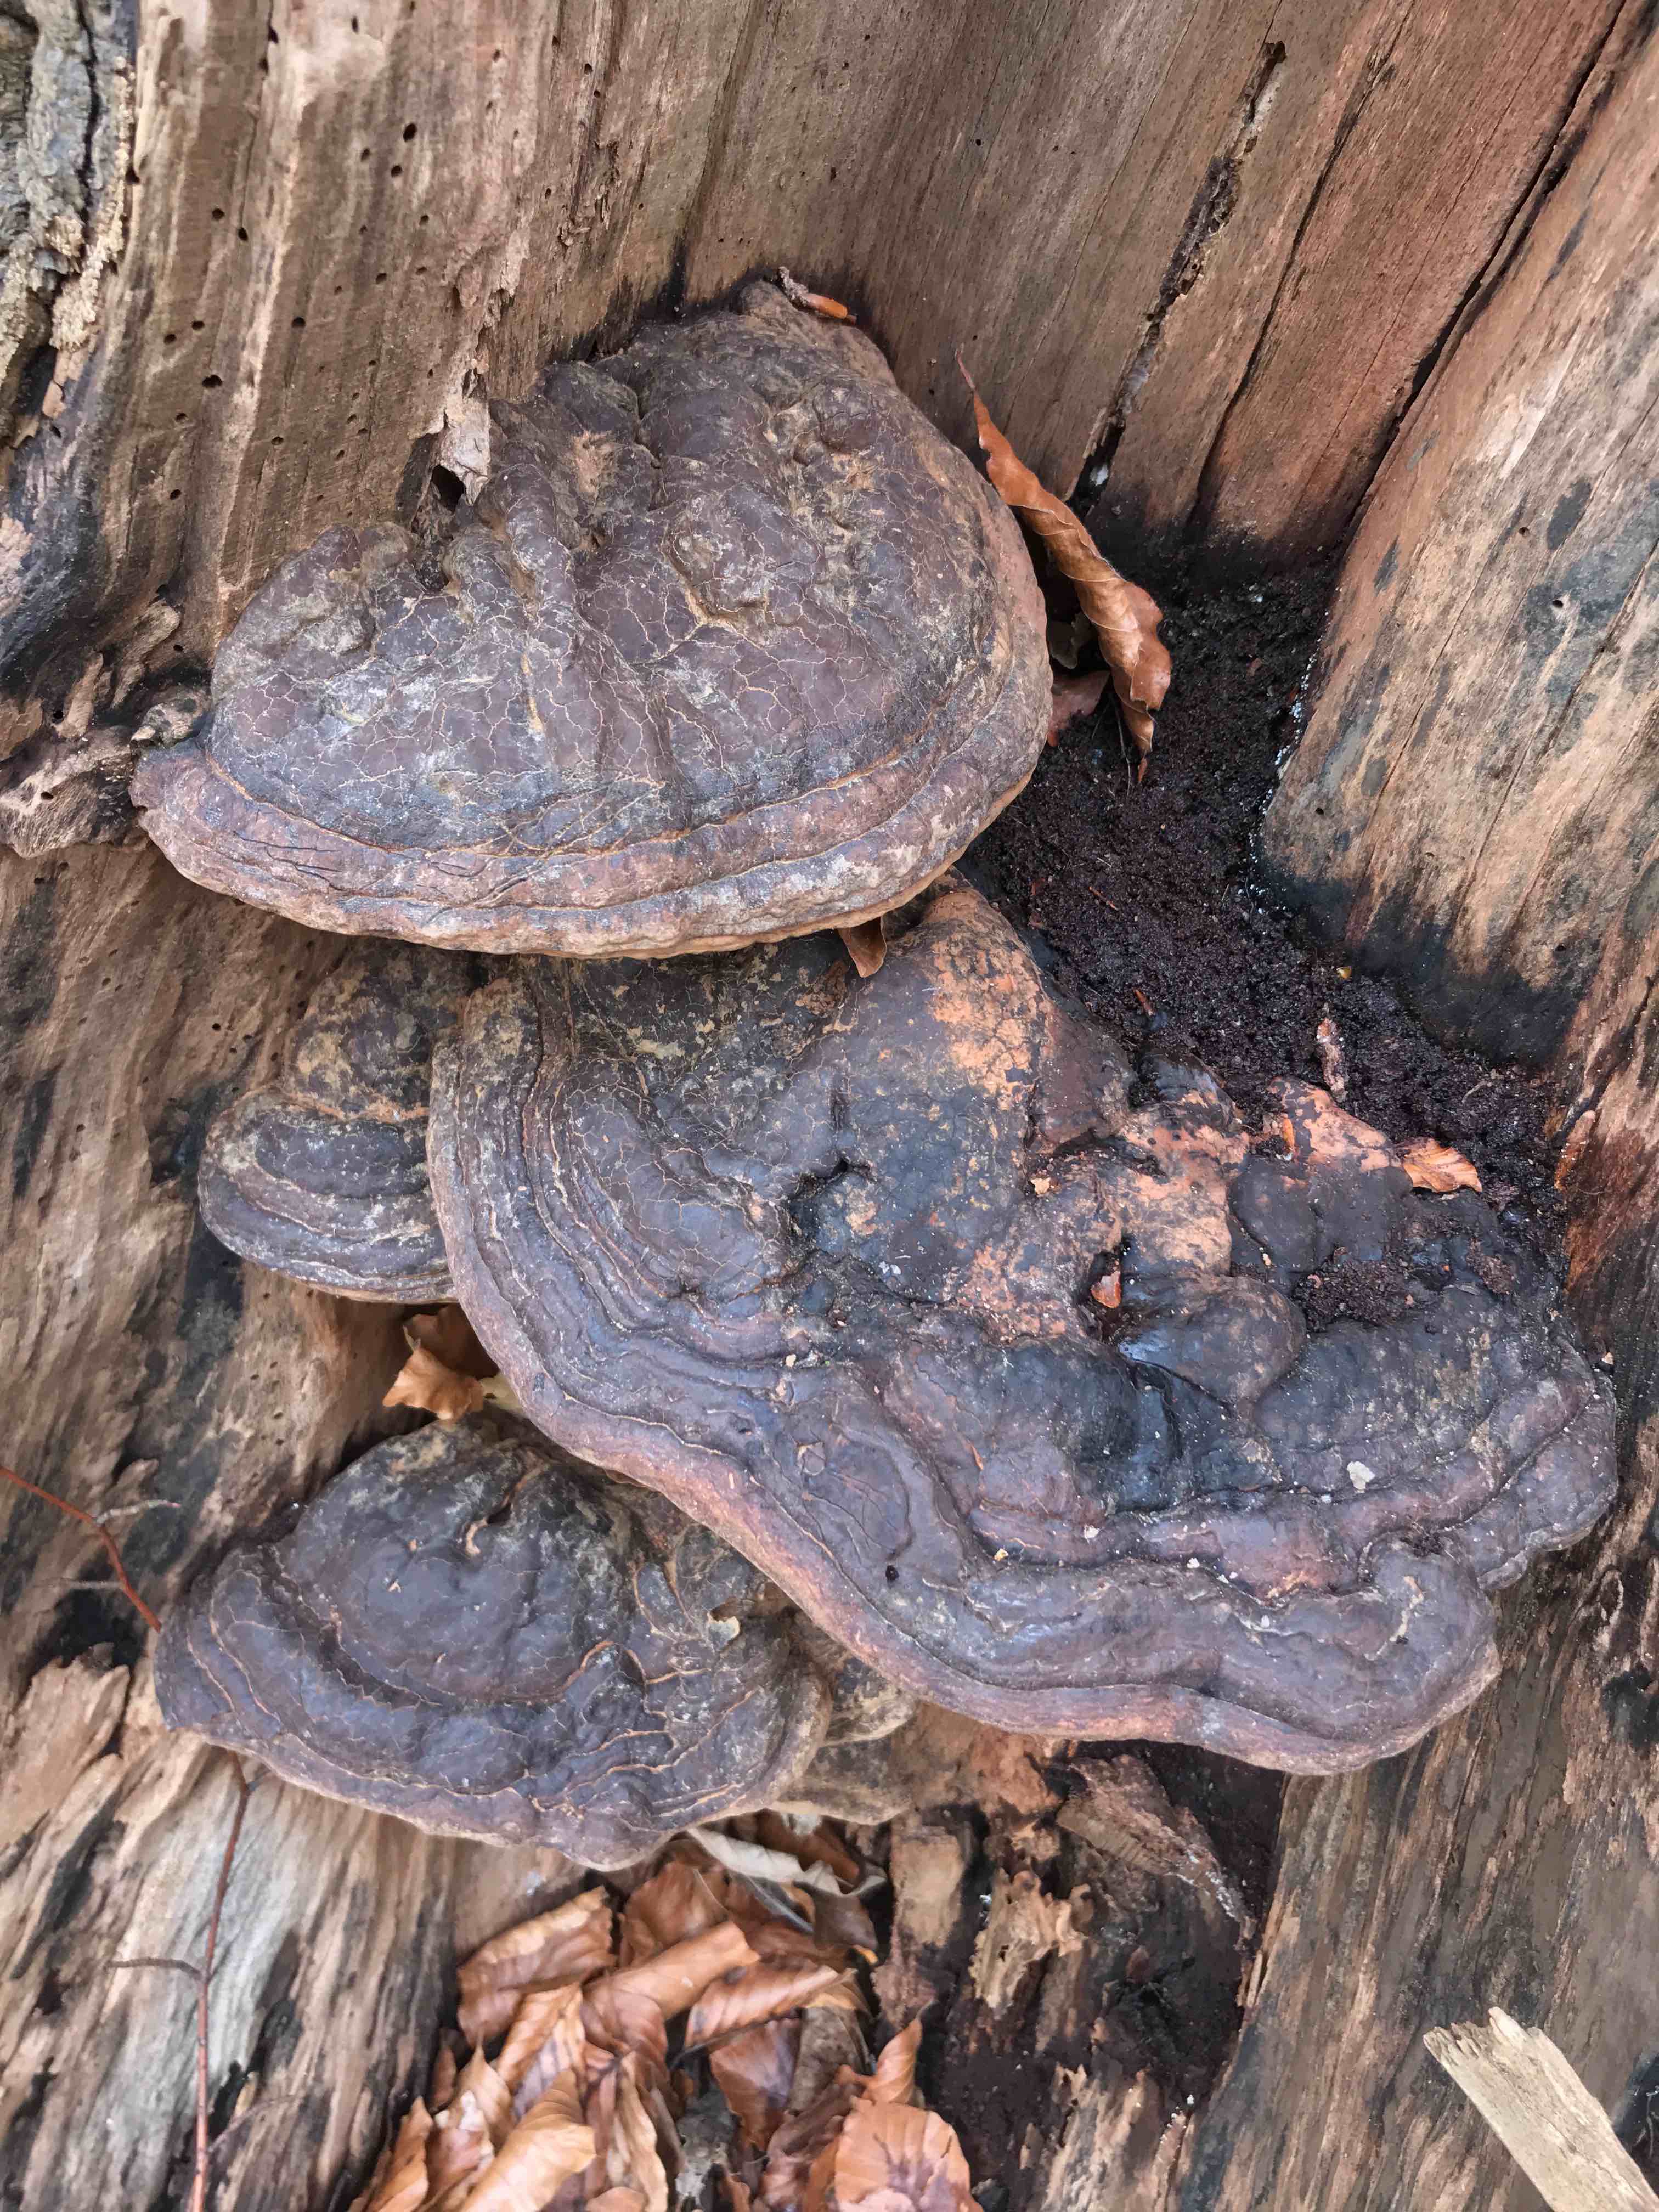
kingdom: Fungi
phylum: Basidiomycota
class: Agaricomycetes
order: Polyporales
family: Polyporaceae
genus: Ganoderma
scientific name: Ganoderma pfeifferi
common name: kobberrød lakporesvamp
